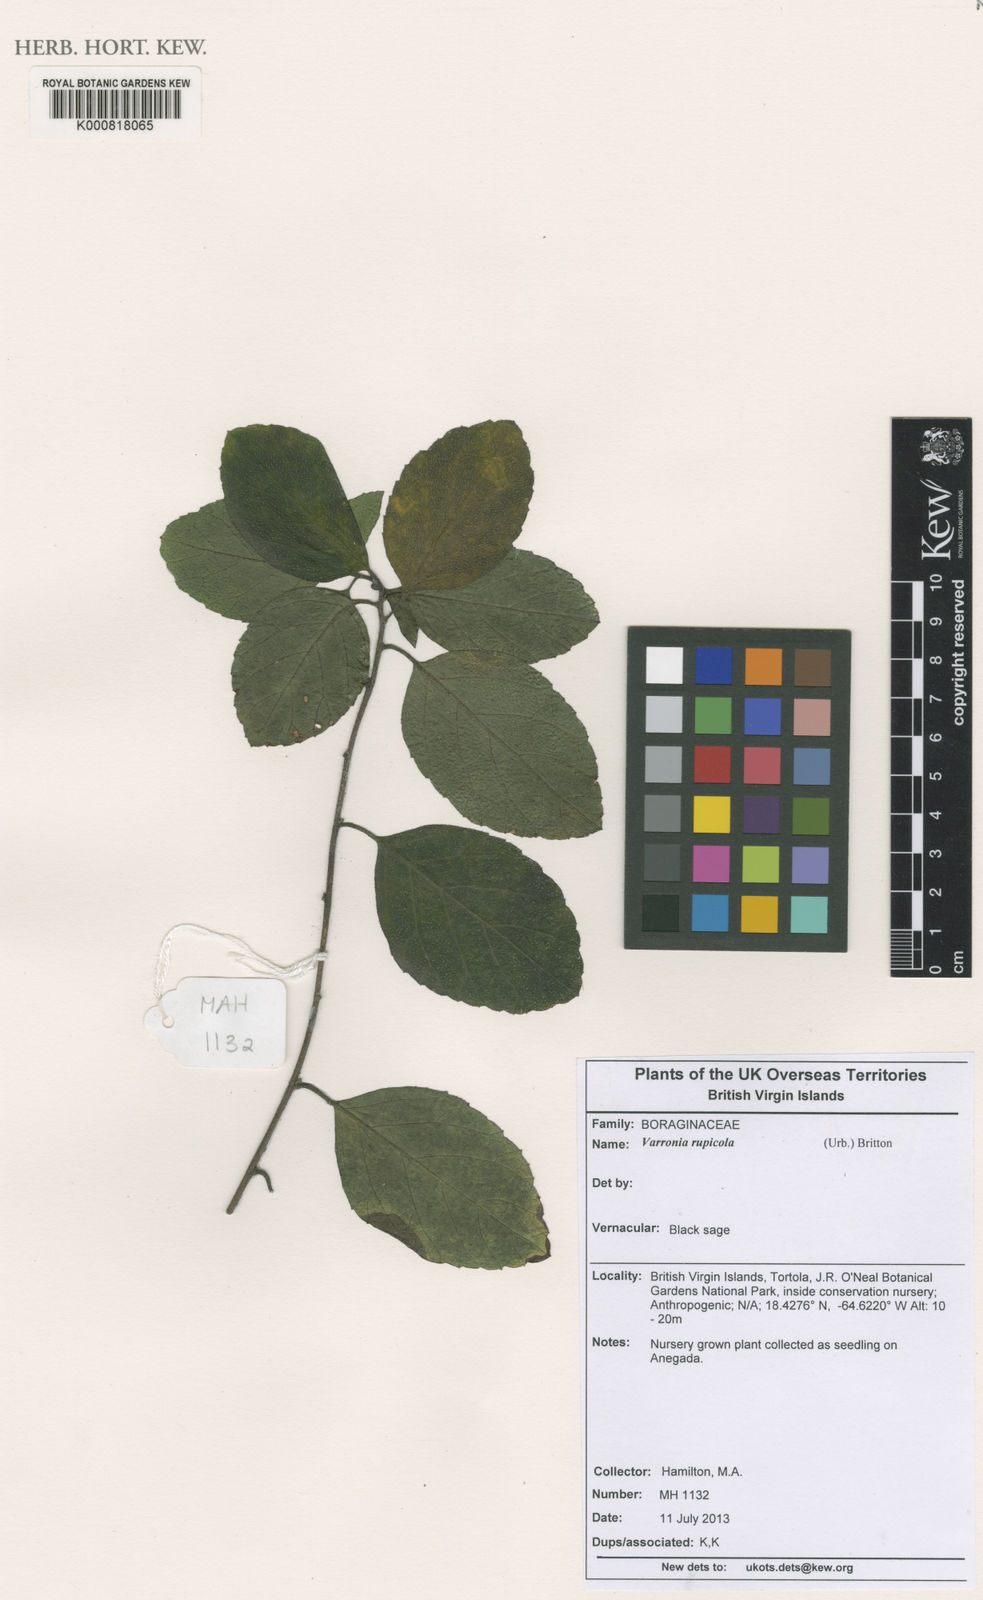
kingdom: Plantae
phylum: Tracheophyta
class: Magnoliopsida
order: Boraginales
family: Cordiaceae
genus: Varronia
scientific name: Varronia rupicola
